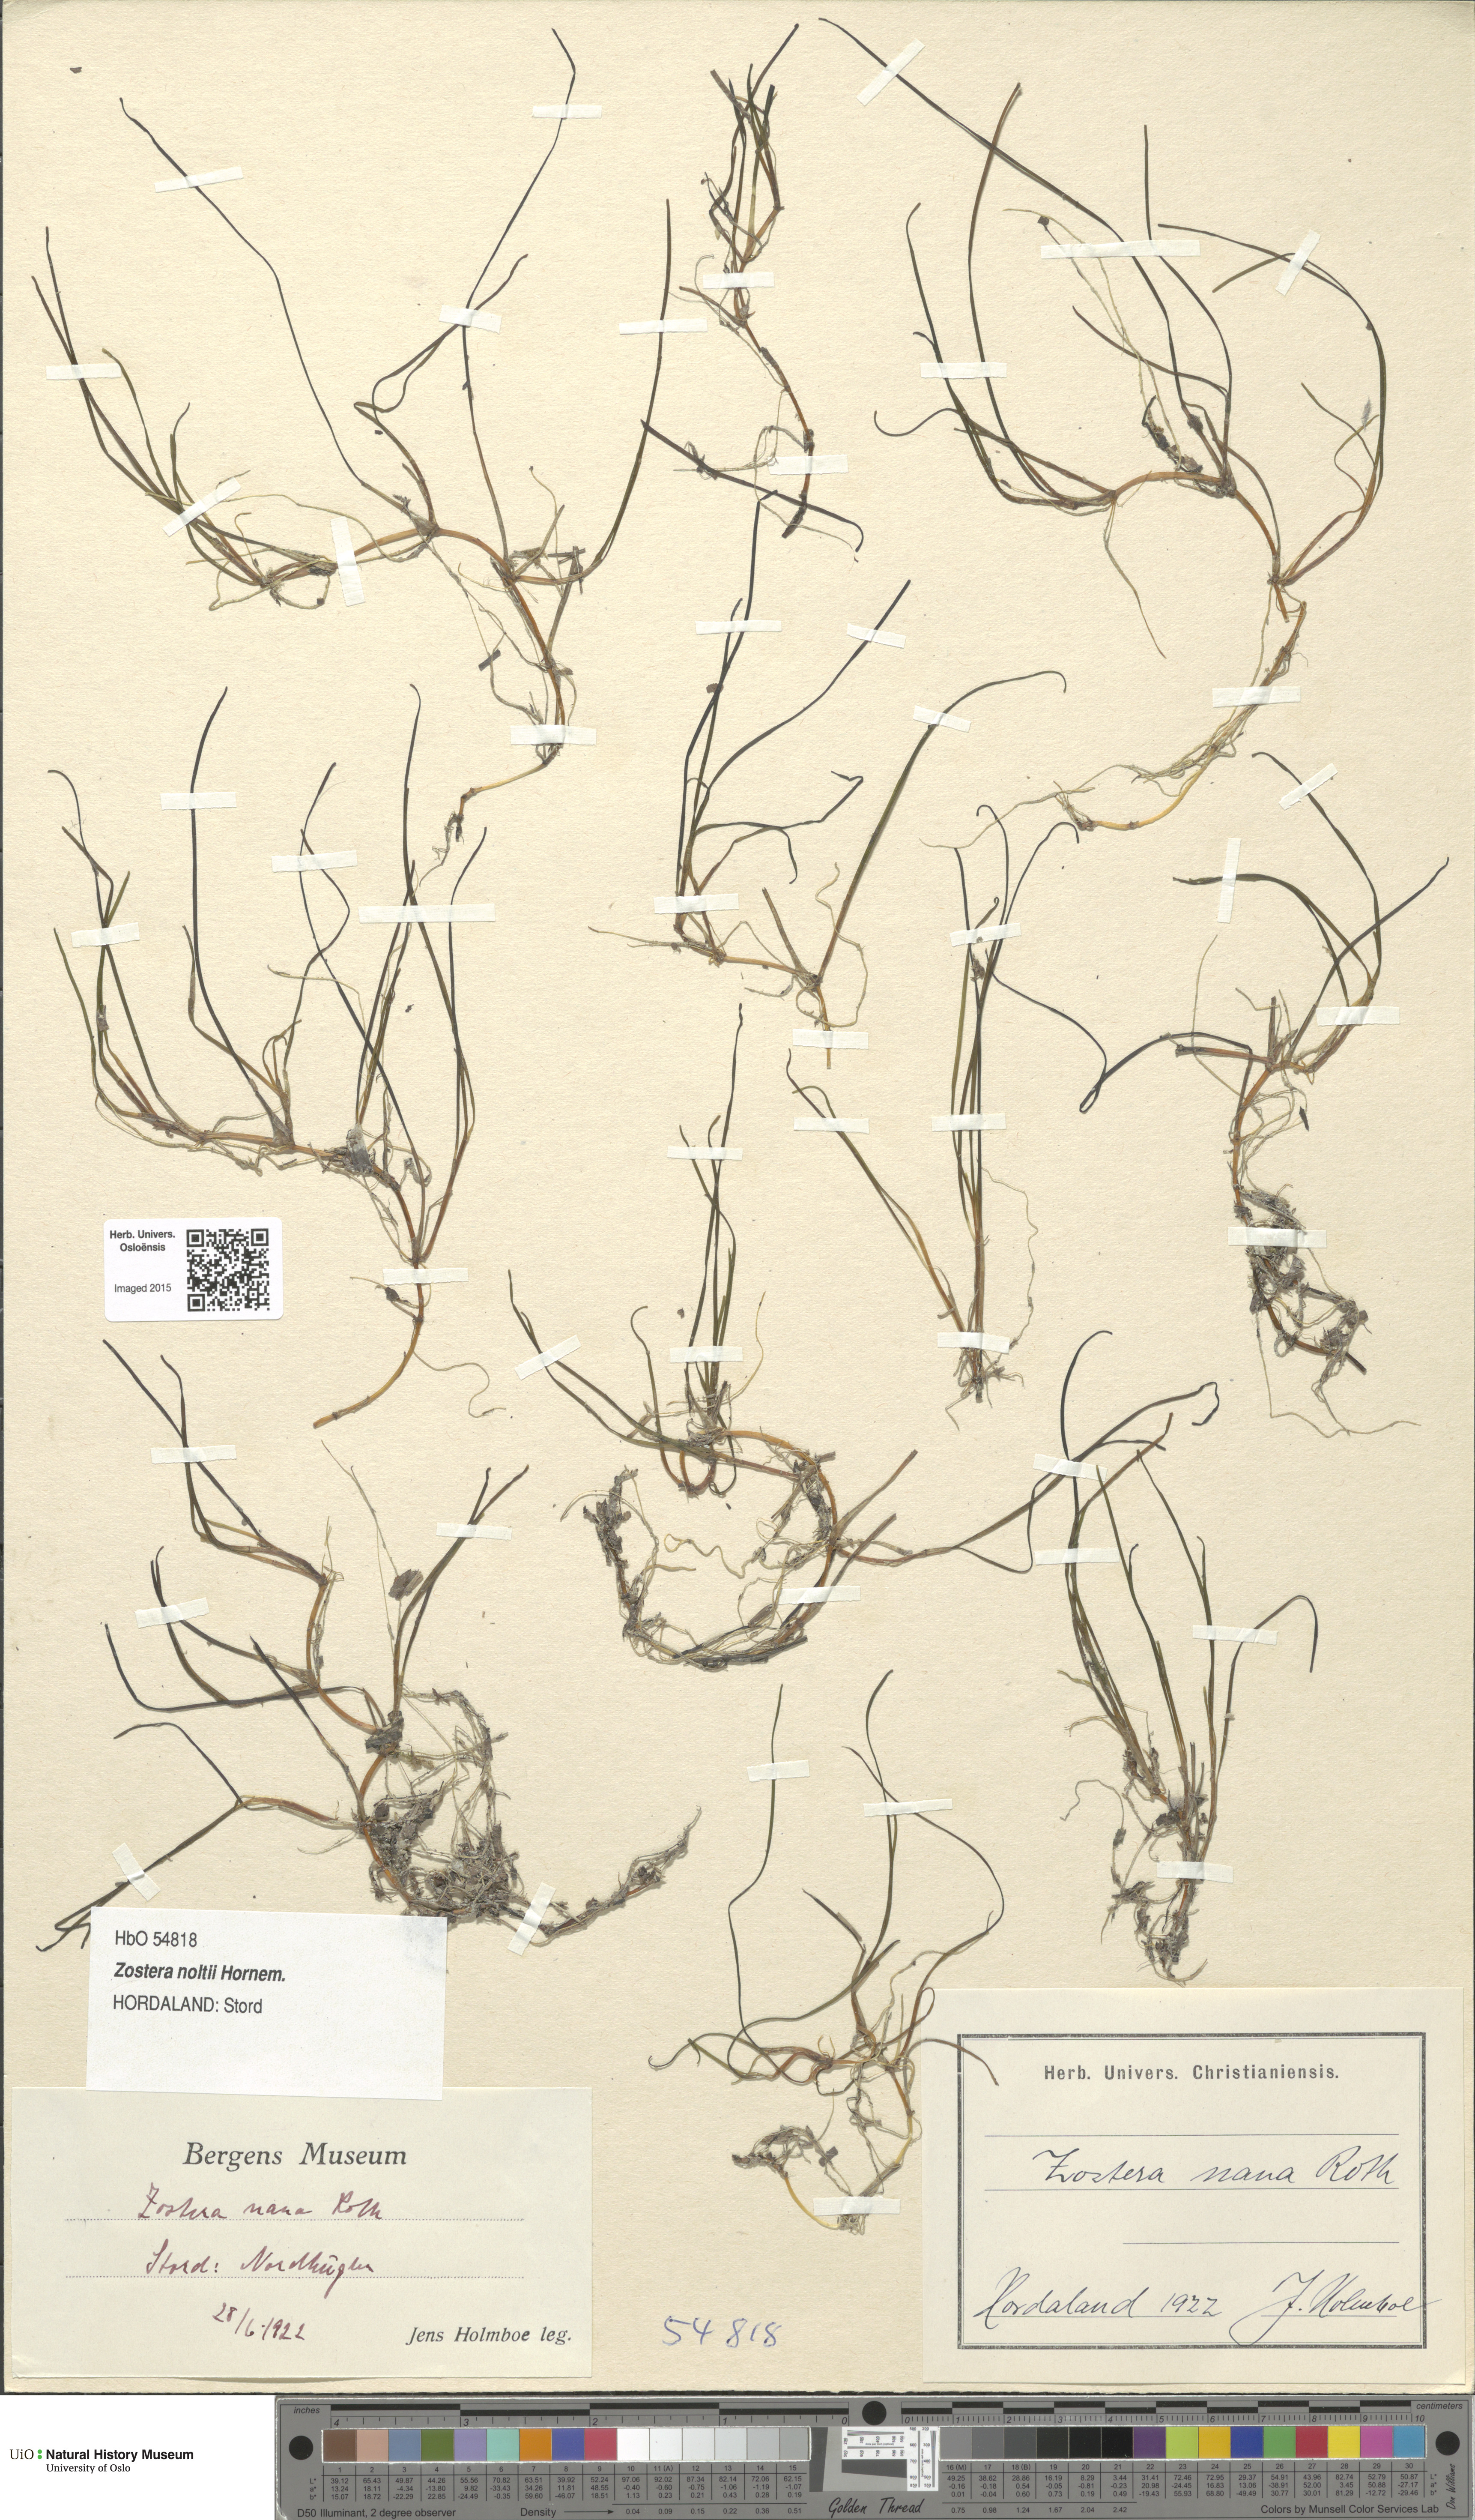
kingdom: Plantae
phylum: Tracheophyta
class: Liliopsida
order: Alismatales
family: Zosteraceae
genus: Zostera
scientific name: Zostera noltii
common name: Dwarf eelgrass
